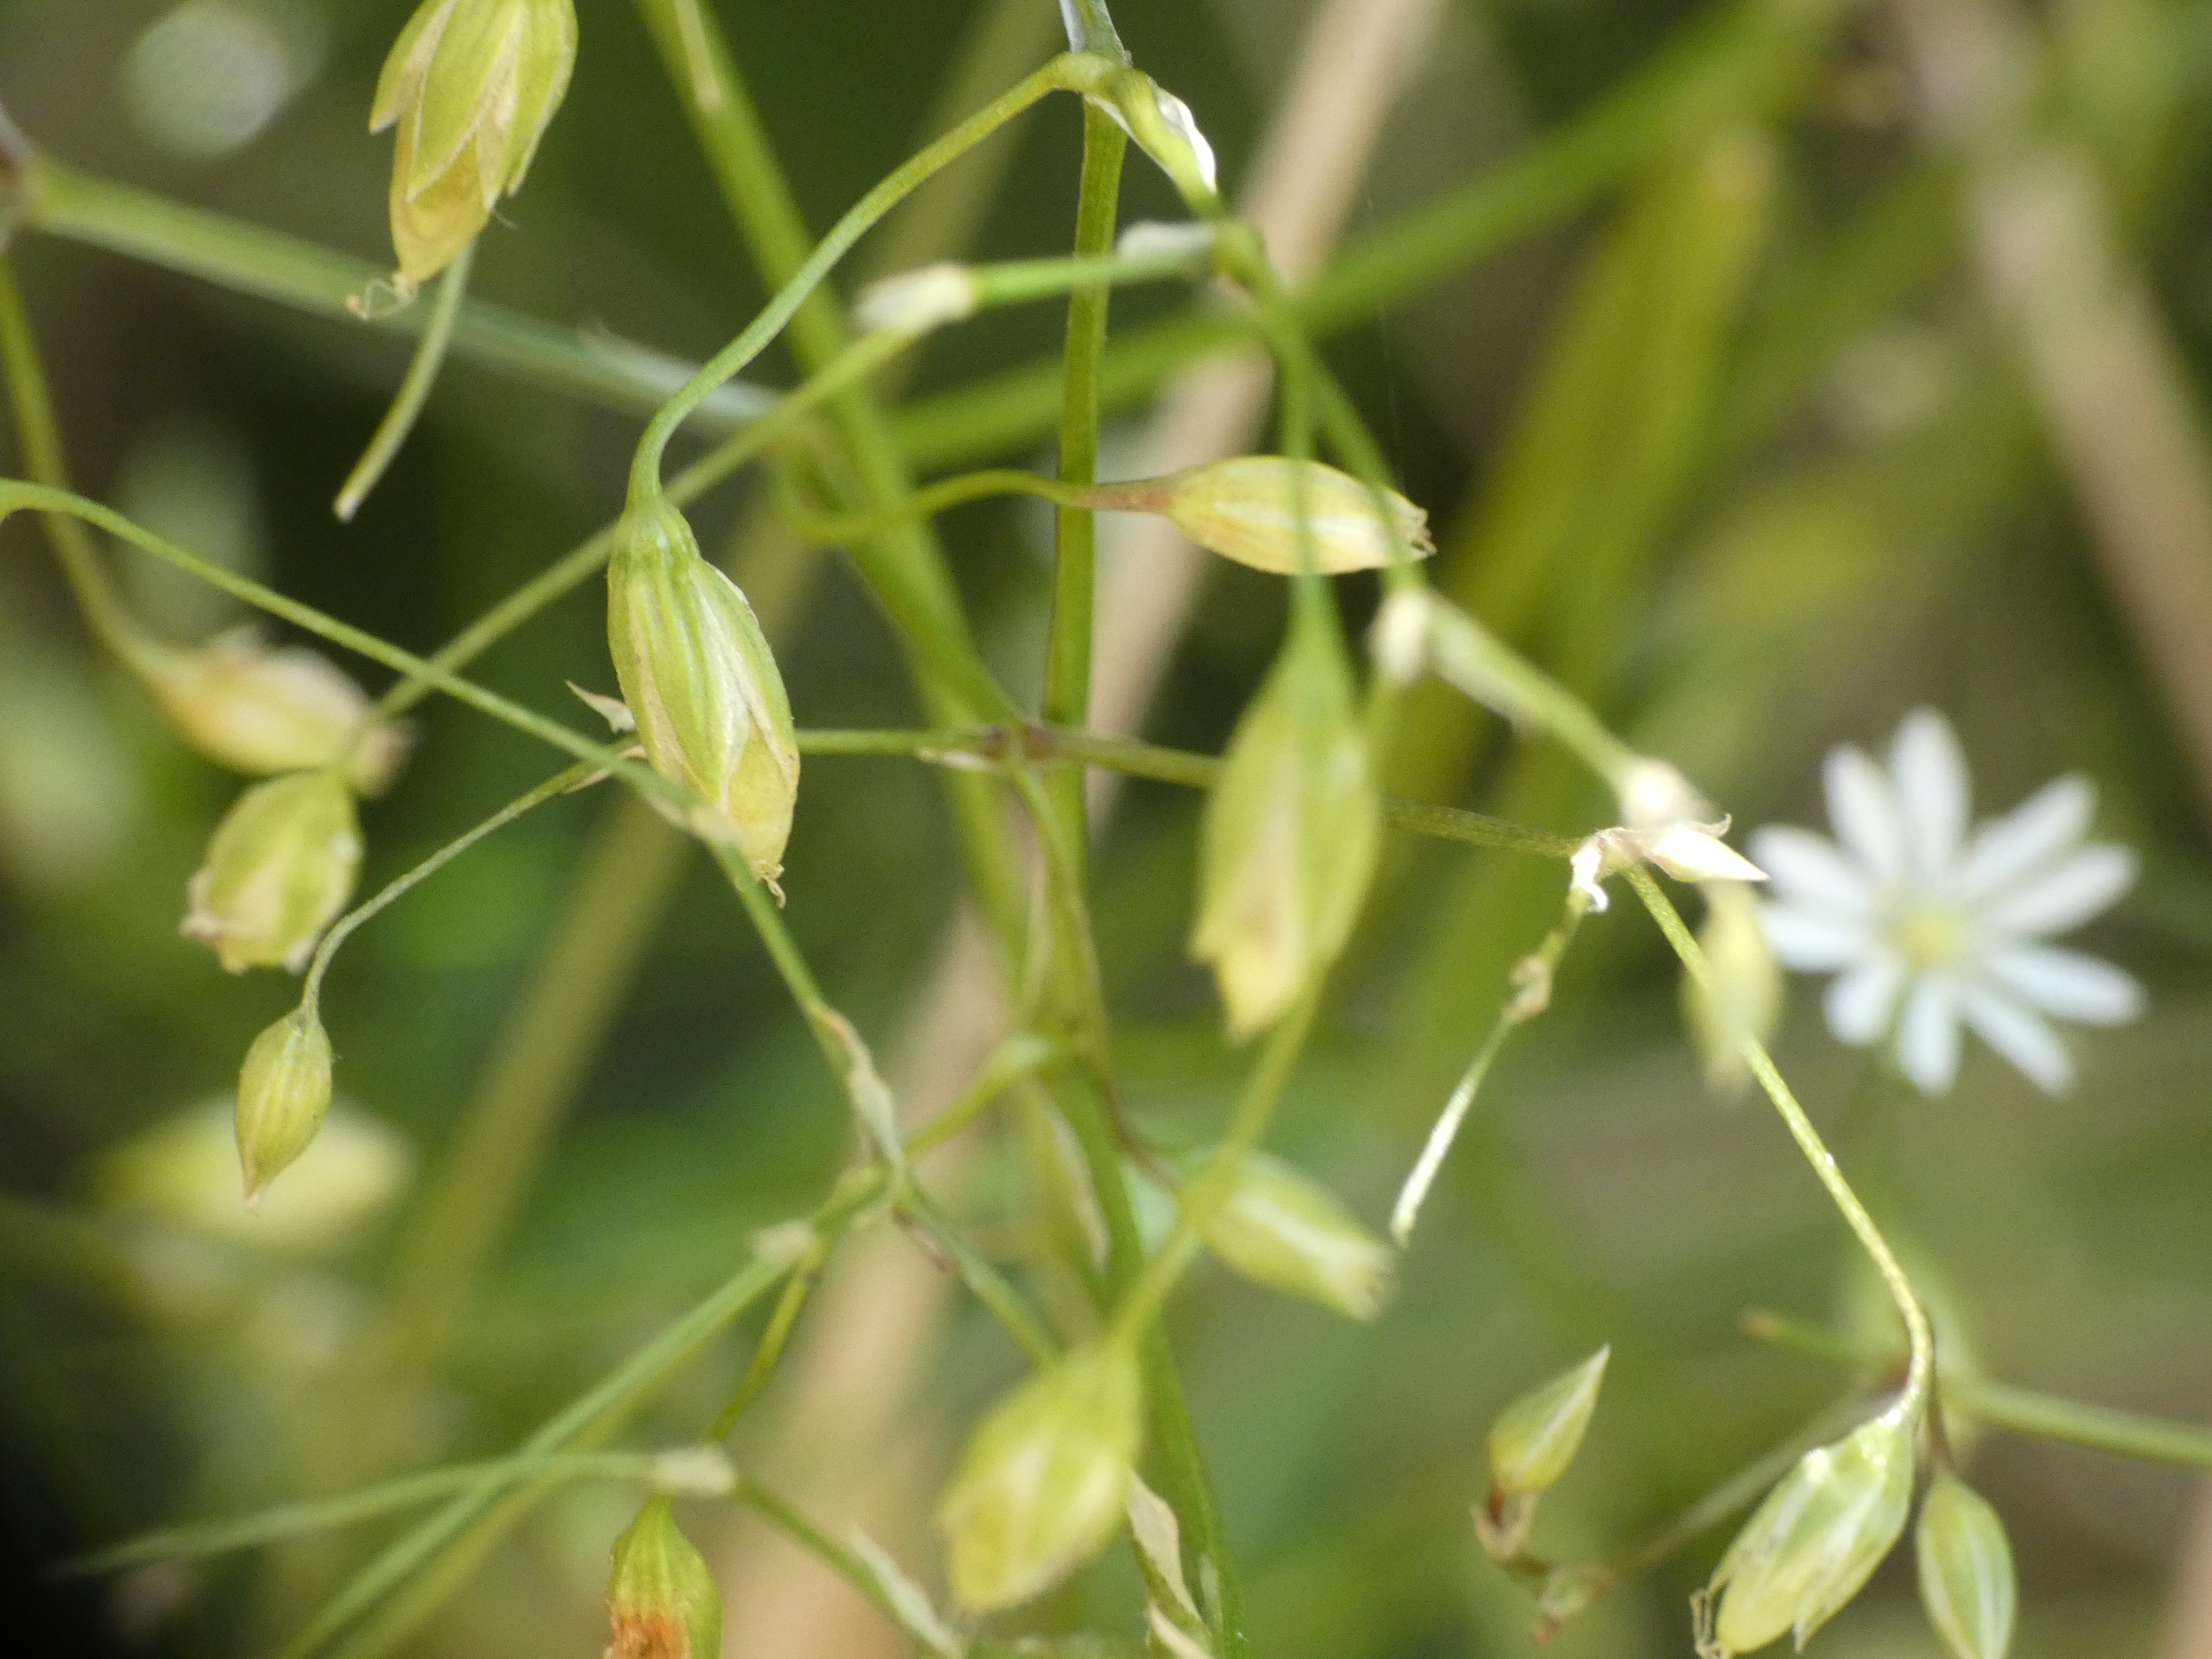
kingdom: Plantae
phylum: Tracheophyta
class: Magnoliopsida
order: Caryophyllales
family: Caryophyllaceae
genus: Stellaria
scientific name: Stellaria graminea
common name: Græsbladet fladstjerne
